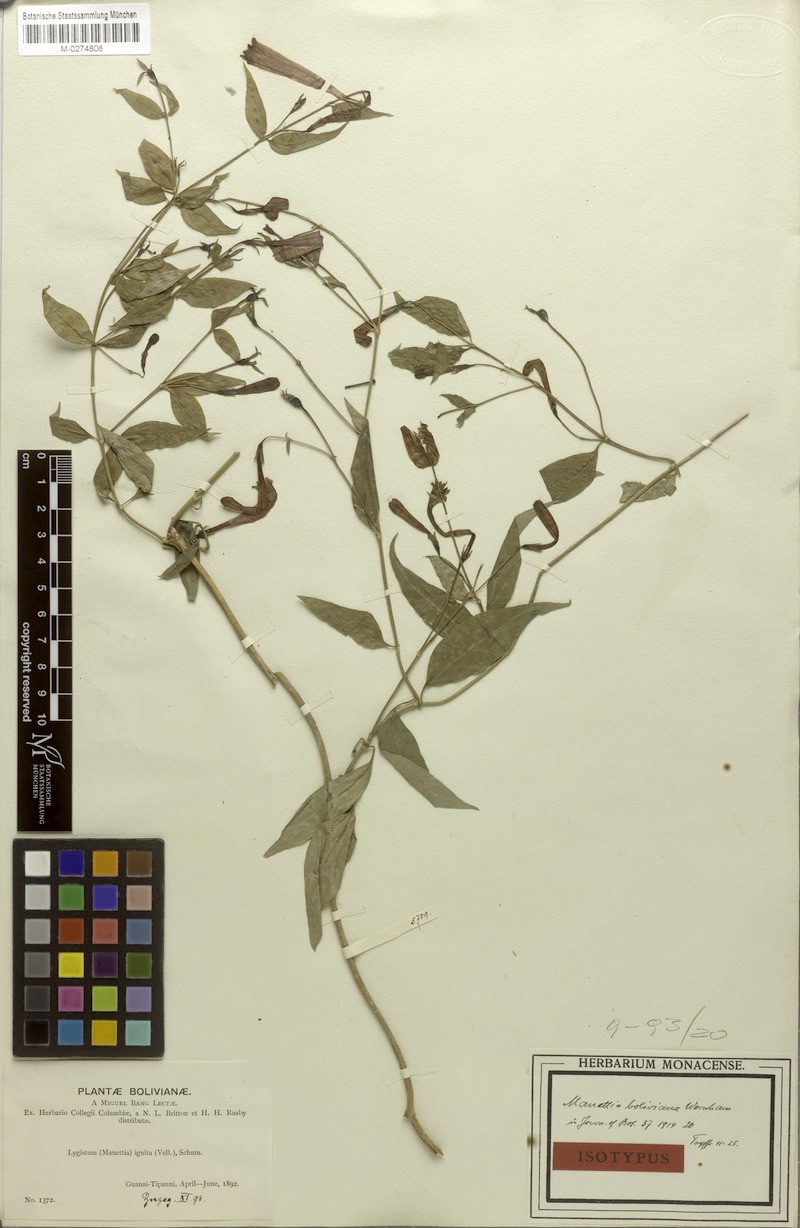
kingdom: Plantae
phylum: Tracheophyta
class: Magnoliopsida
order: Gentianales
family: Rubiaceae
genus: Manettia
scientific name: Manettia cordifolia
